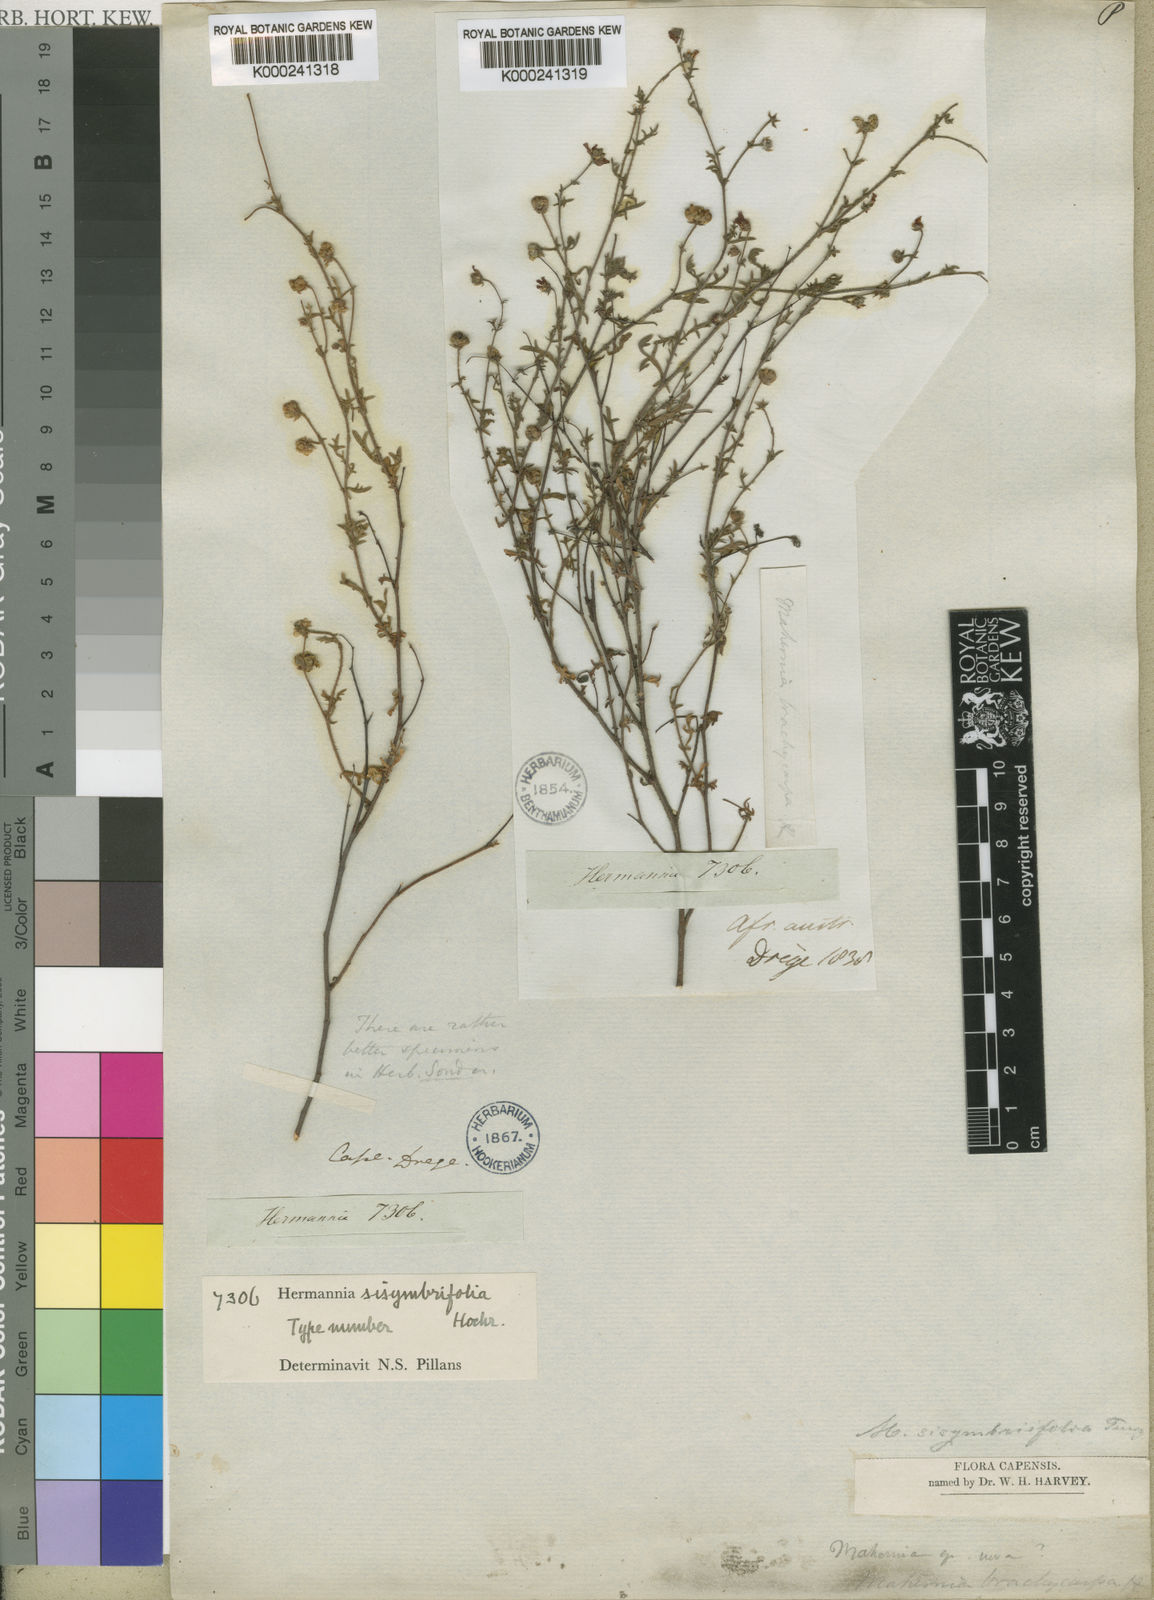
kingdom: Plantae
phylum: Tracheophyta
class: Magnoliopsida
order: Malvales
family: Malvaceae
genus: Hermannia
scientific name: Hermannia sisymbriifolia
